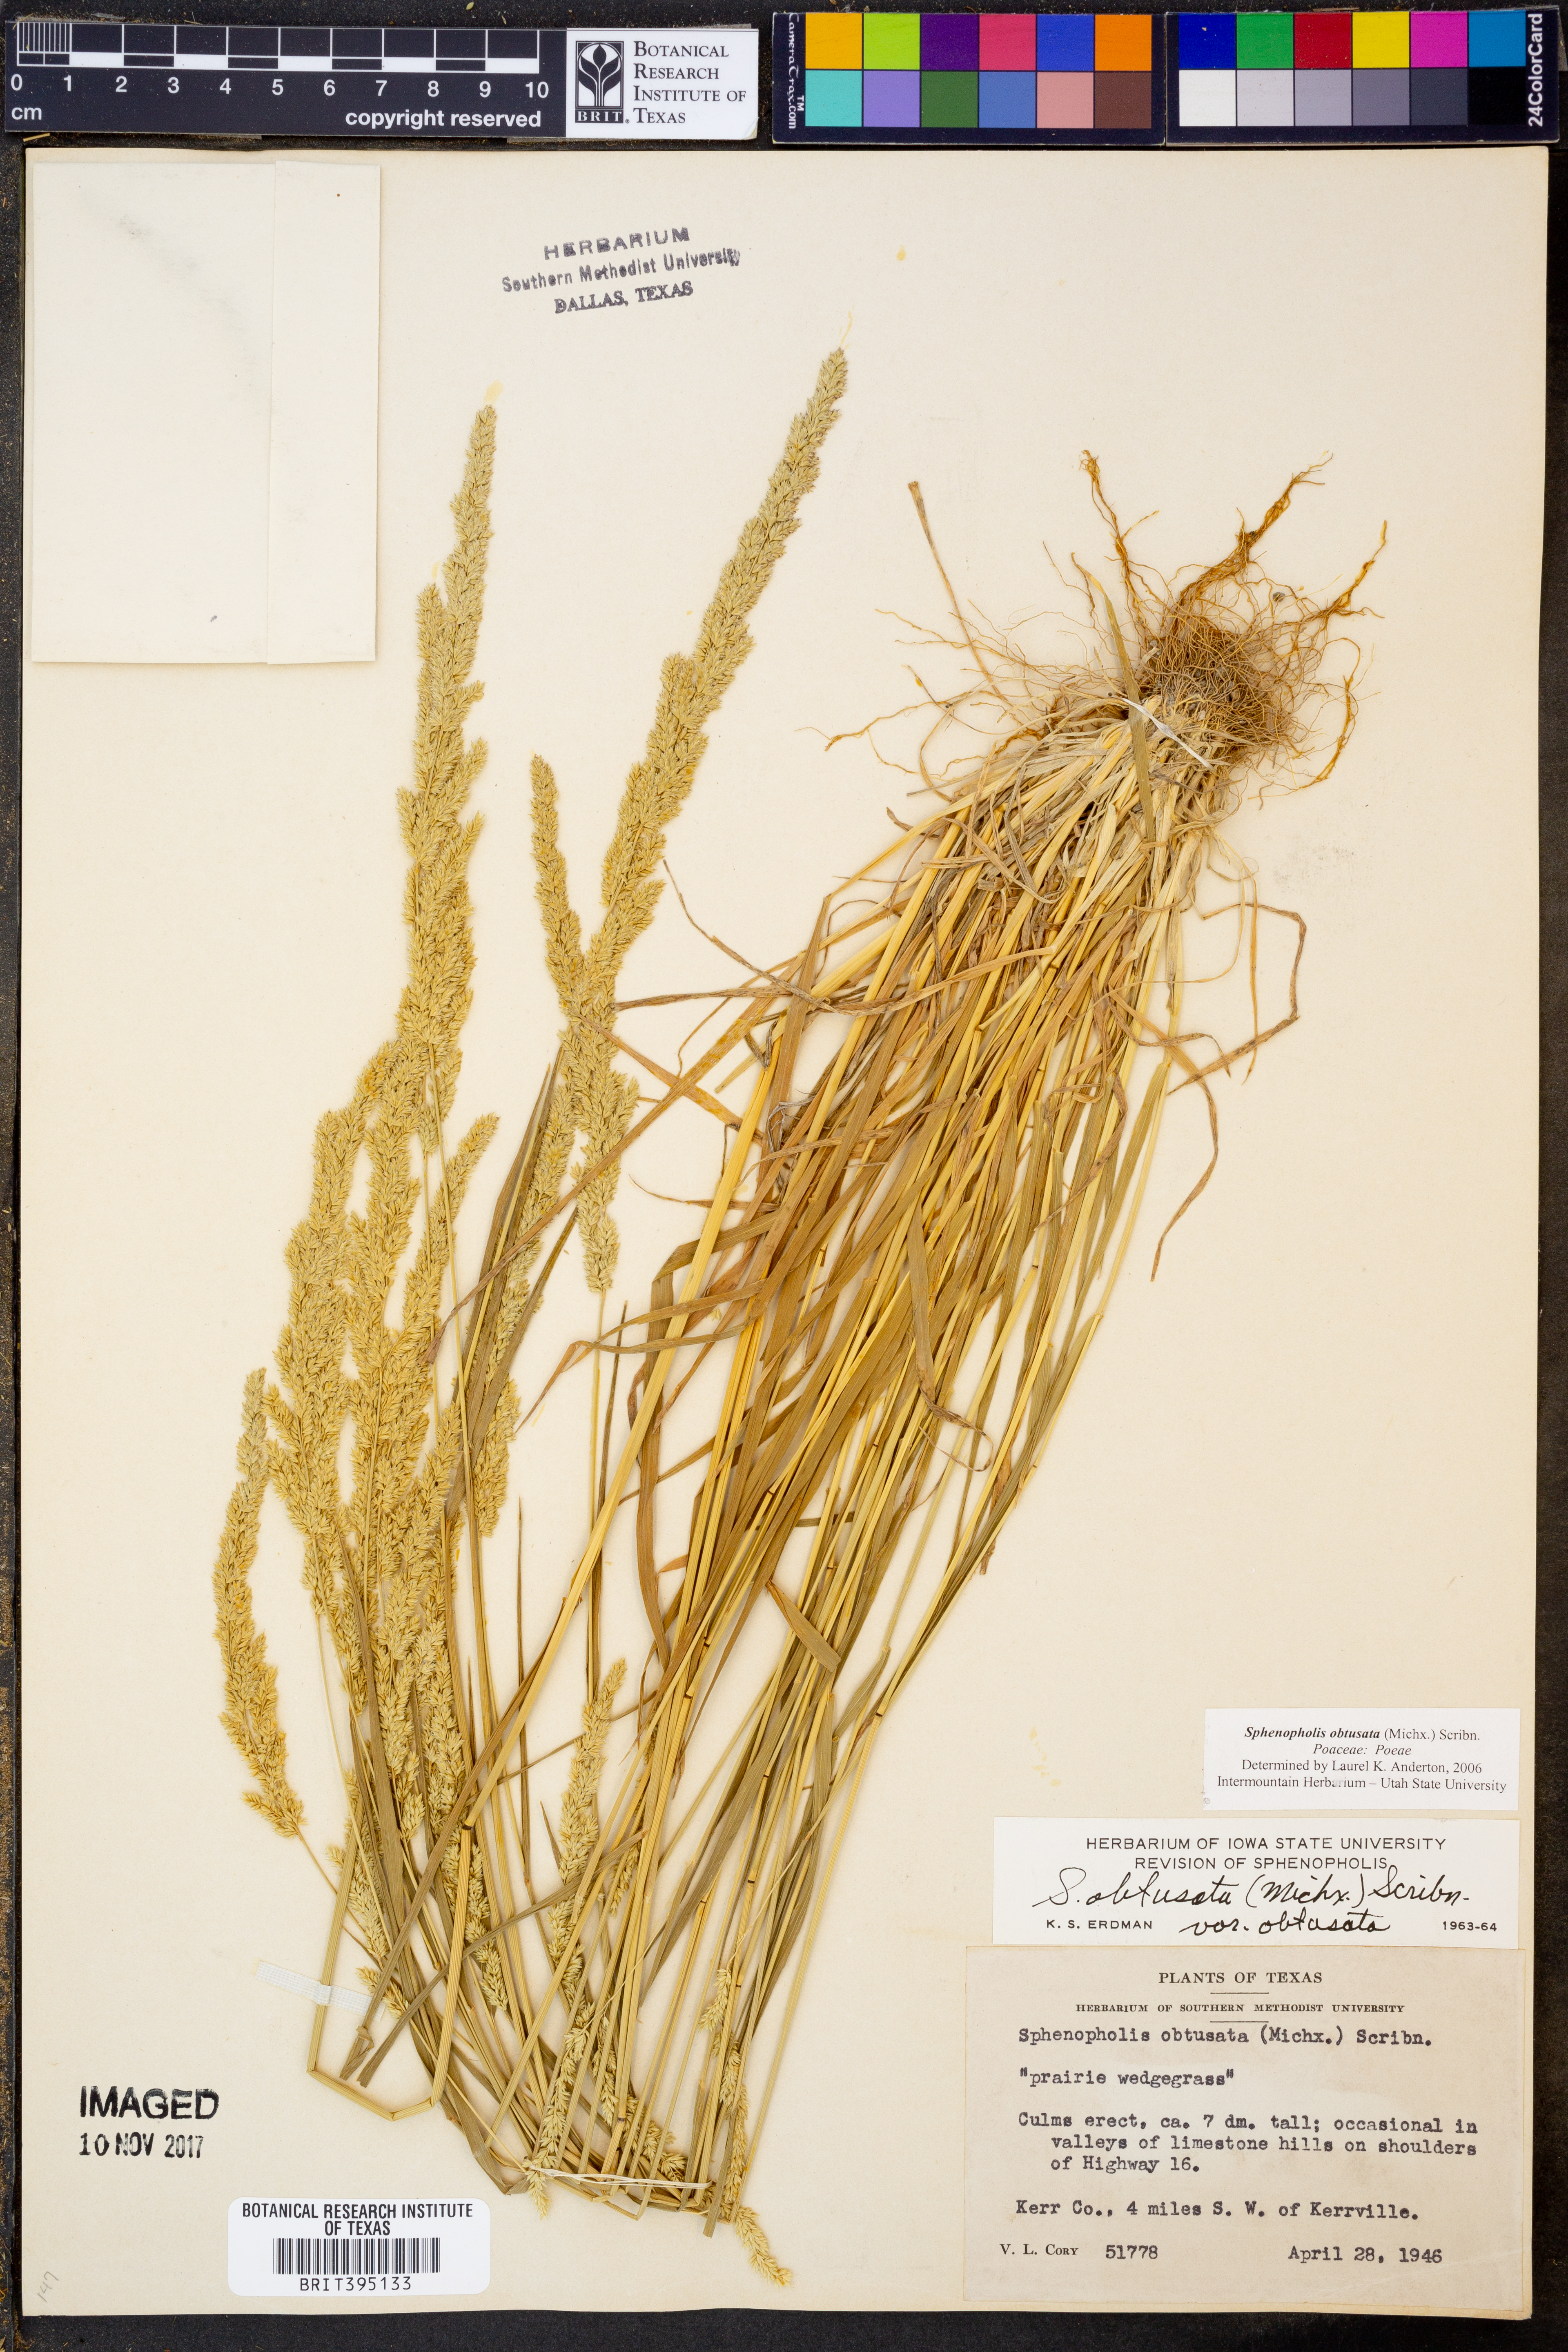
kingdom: Plantae
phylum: Tracheophyta
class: Liliopsida
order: Poales
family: Poaceae
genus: Sphenopholis
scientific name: Sphenopholis obtusata
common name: Prairie grass
